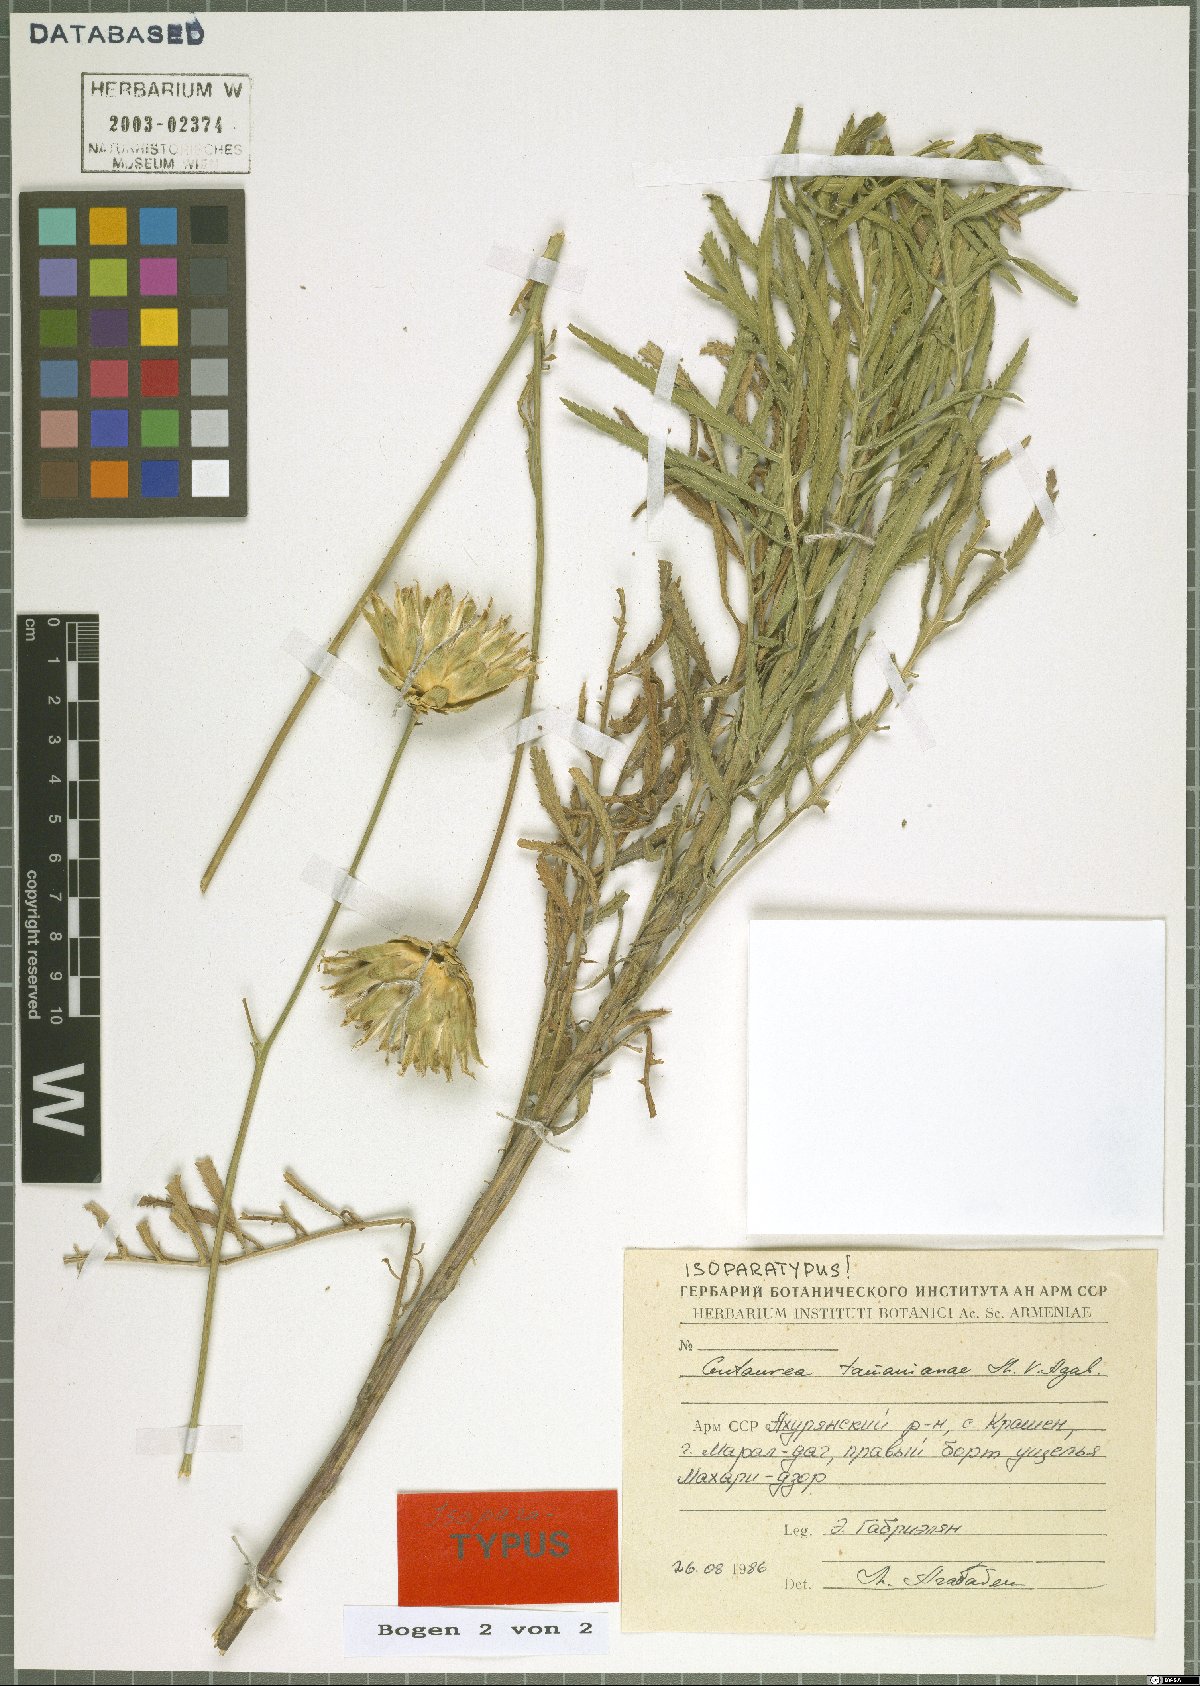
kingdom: Plantae
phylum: Tracheophyta
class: Magnoliopsida
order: Asterales
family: Asteraceae
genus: Rhaponticoides
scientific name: Rhaponticoides tamanianae
